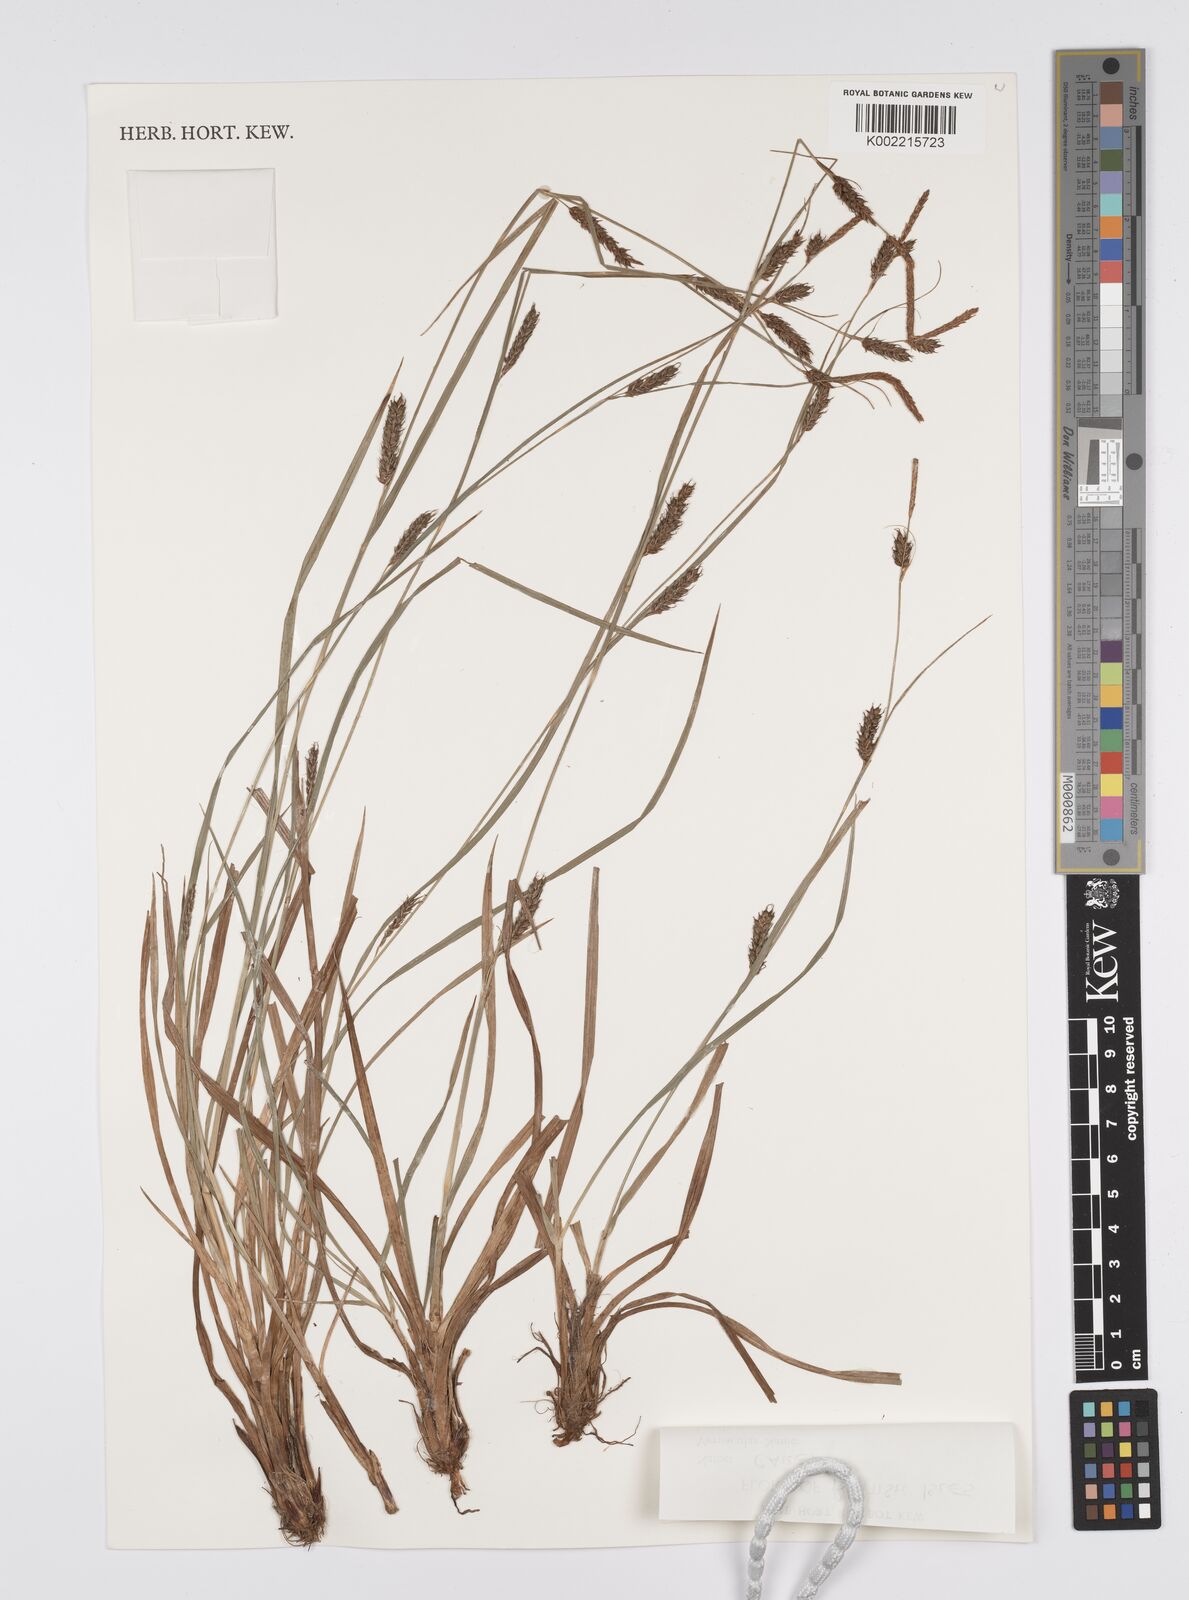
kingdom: Plantae
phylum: Tracheophyta
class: Liliopsida
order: Poales
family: Cyperaceae
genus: Carex
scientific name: Carex
